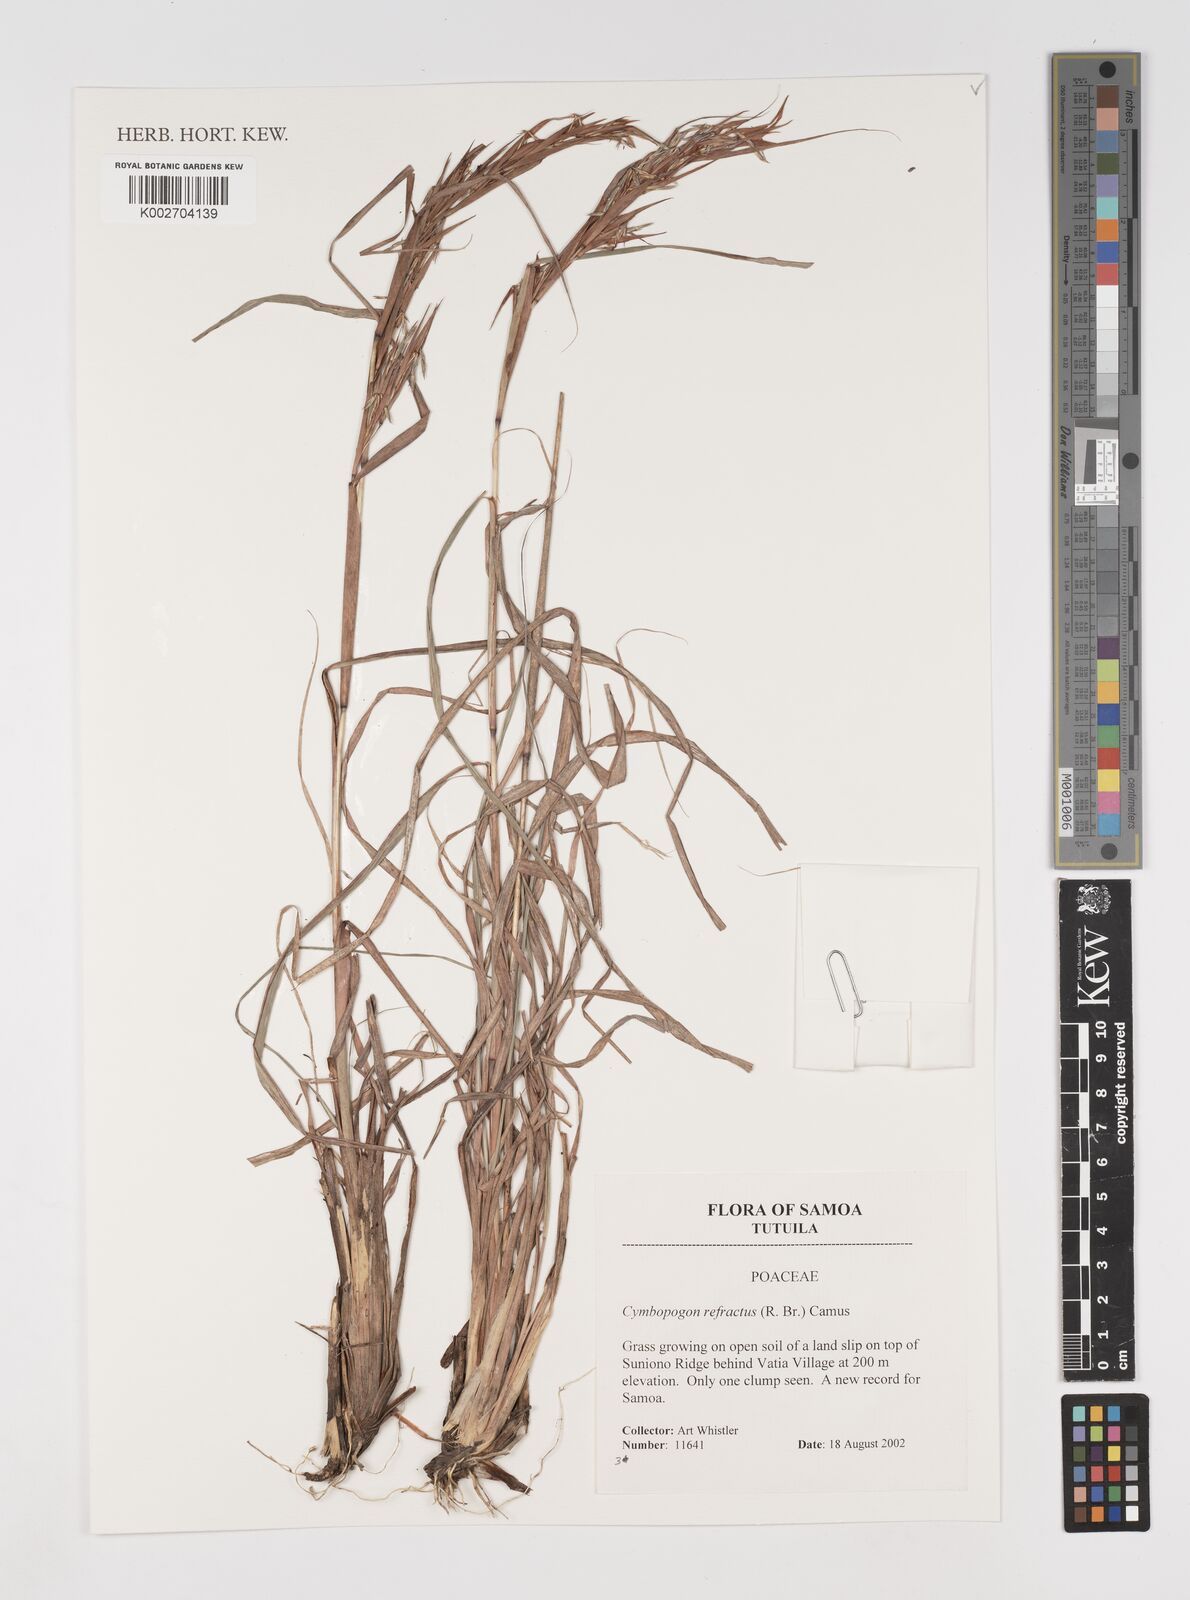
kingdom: Plantae
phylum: Tracheophyta
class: Liliopsida
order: Poales
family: Poaceae
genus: Cymbopogon
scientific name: Cymbopogon refractus
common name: Barbwire grass
